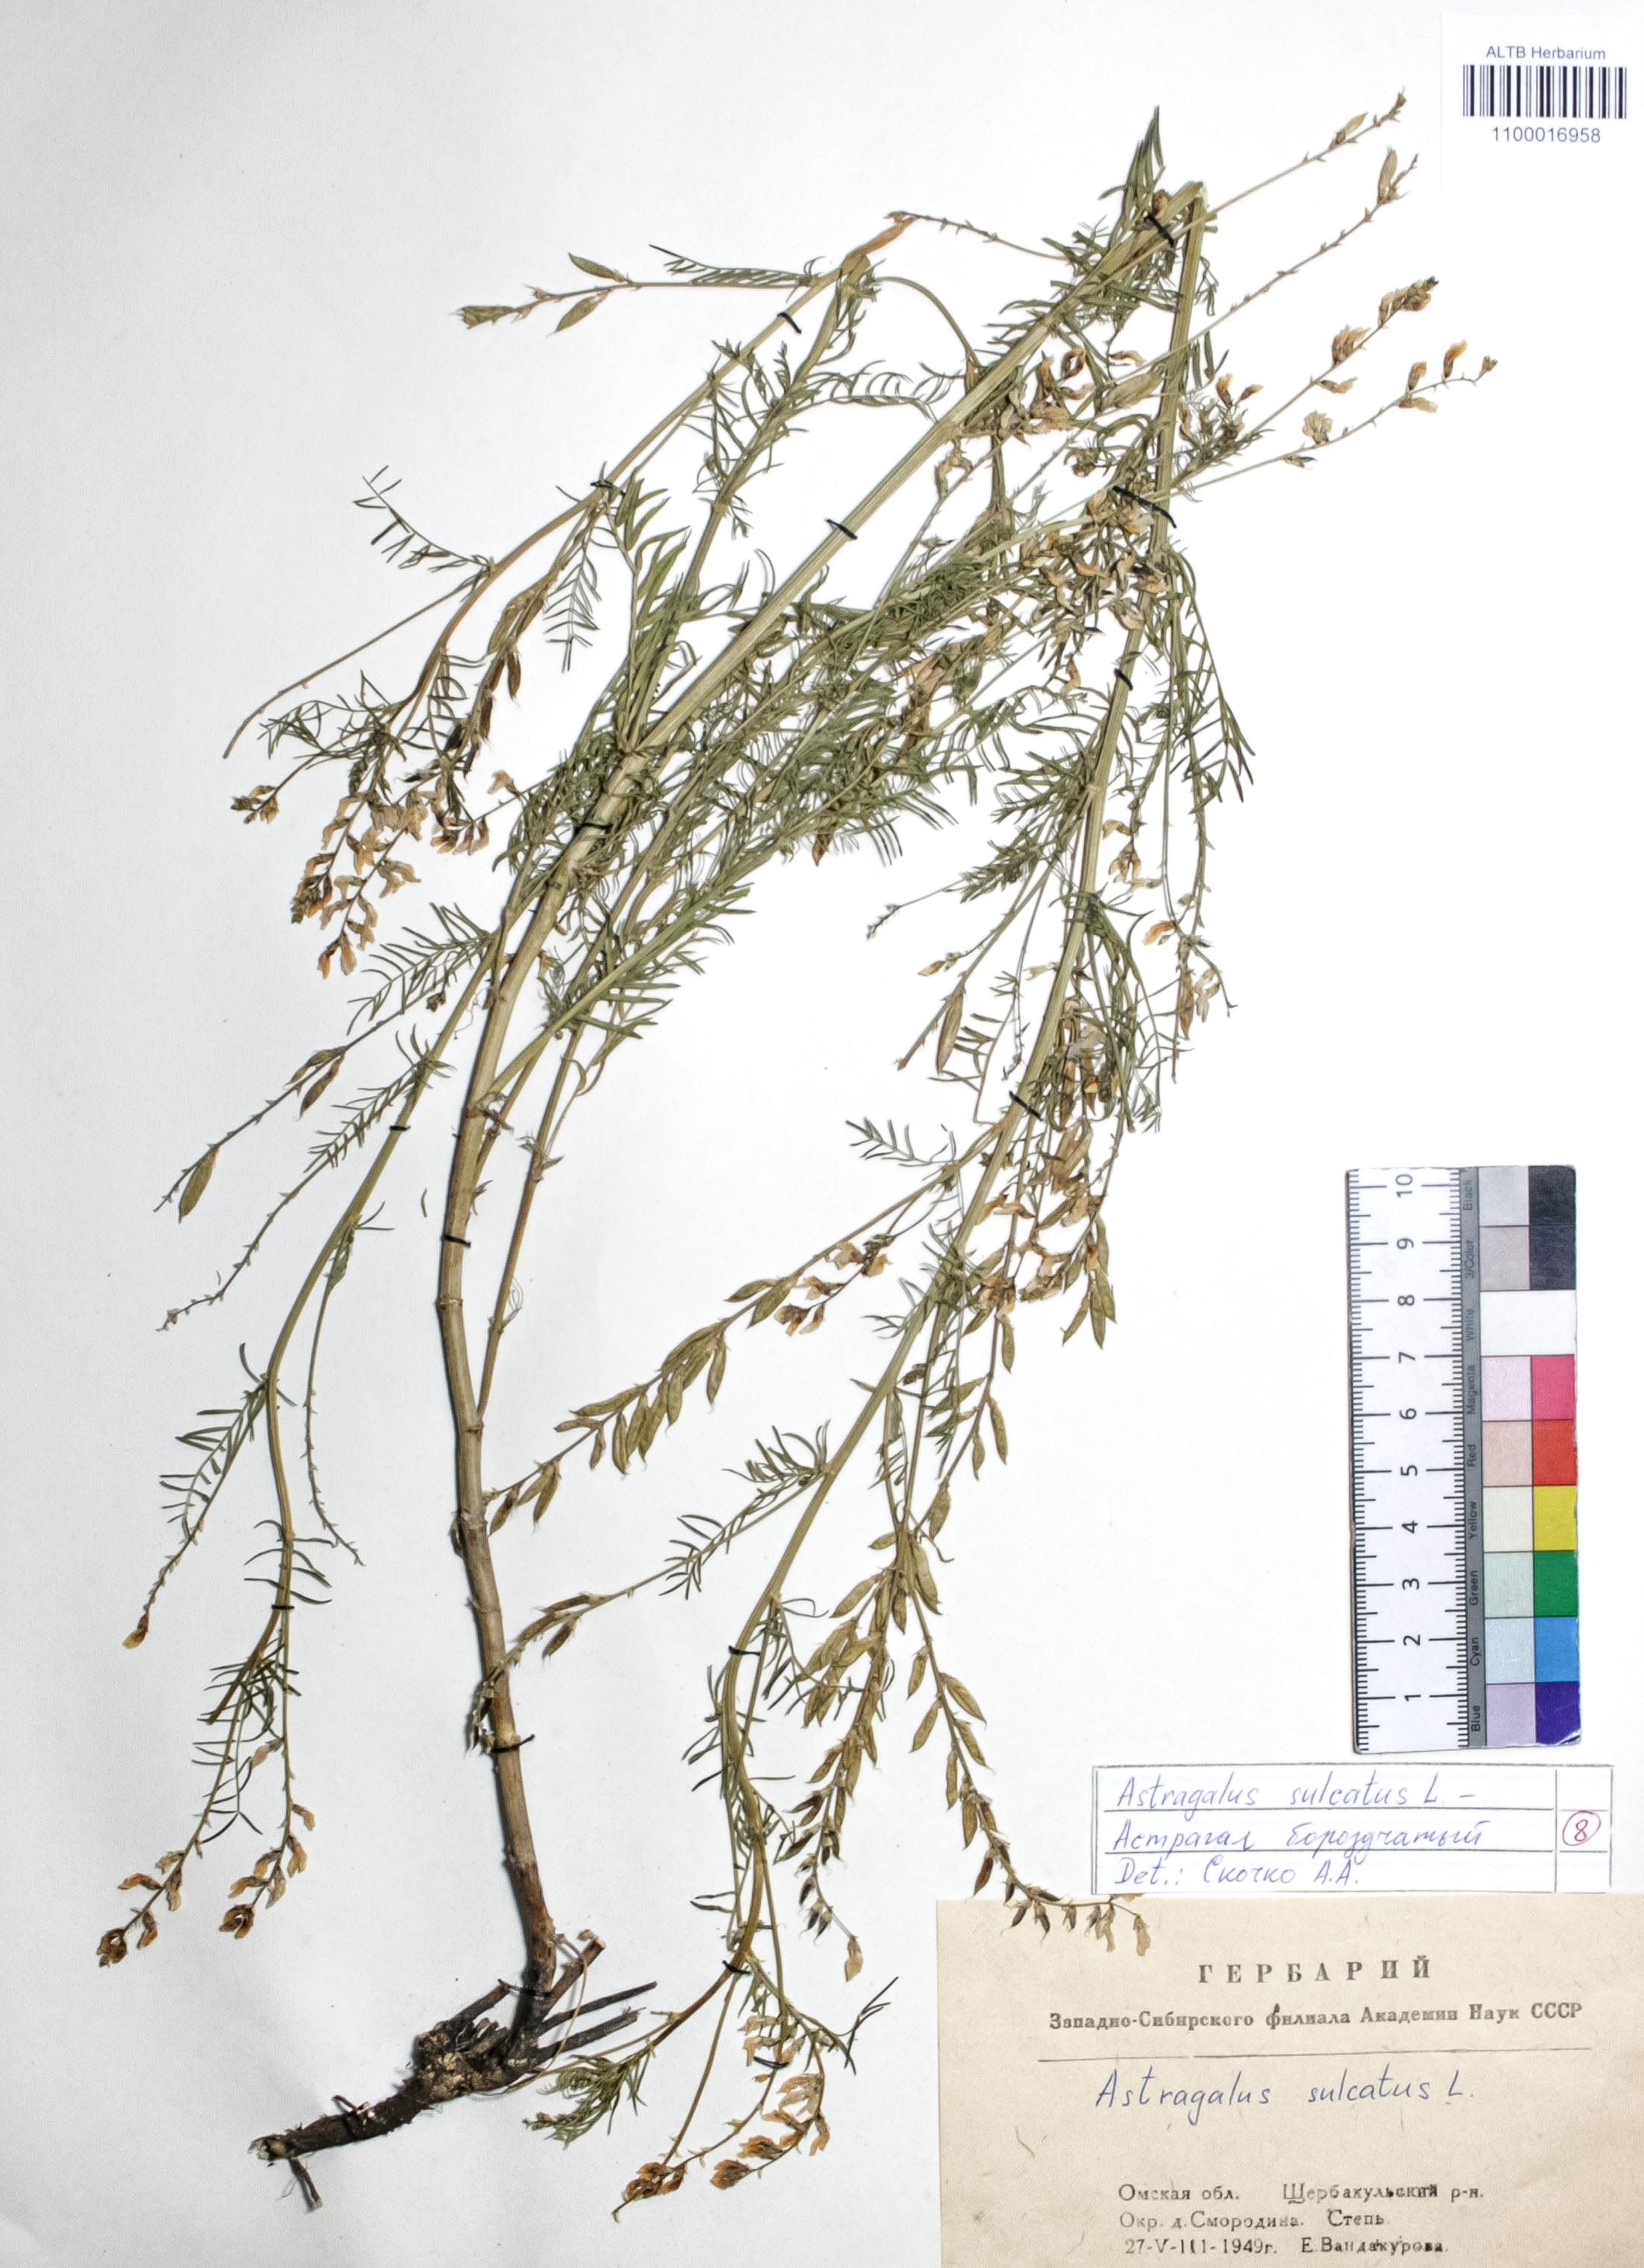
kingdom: Plantae
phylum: Tracheophyta
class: Magnoliopsida
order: Fabales
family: Fabaceae
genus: Astragalus
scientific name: Astragalus sulcatus
